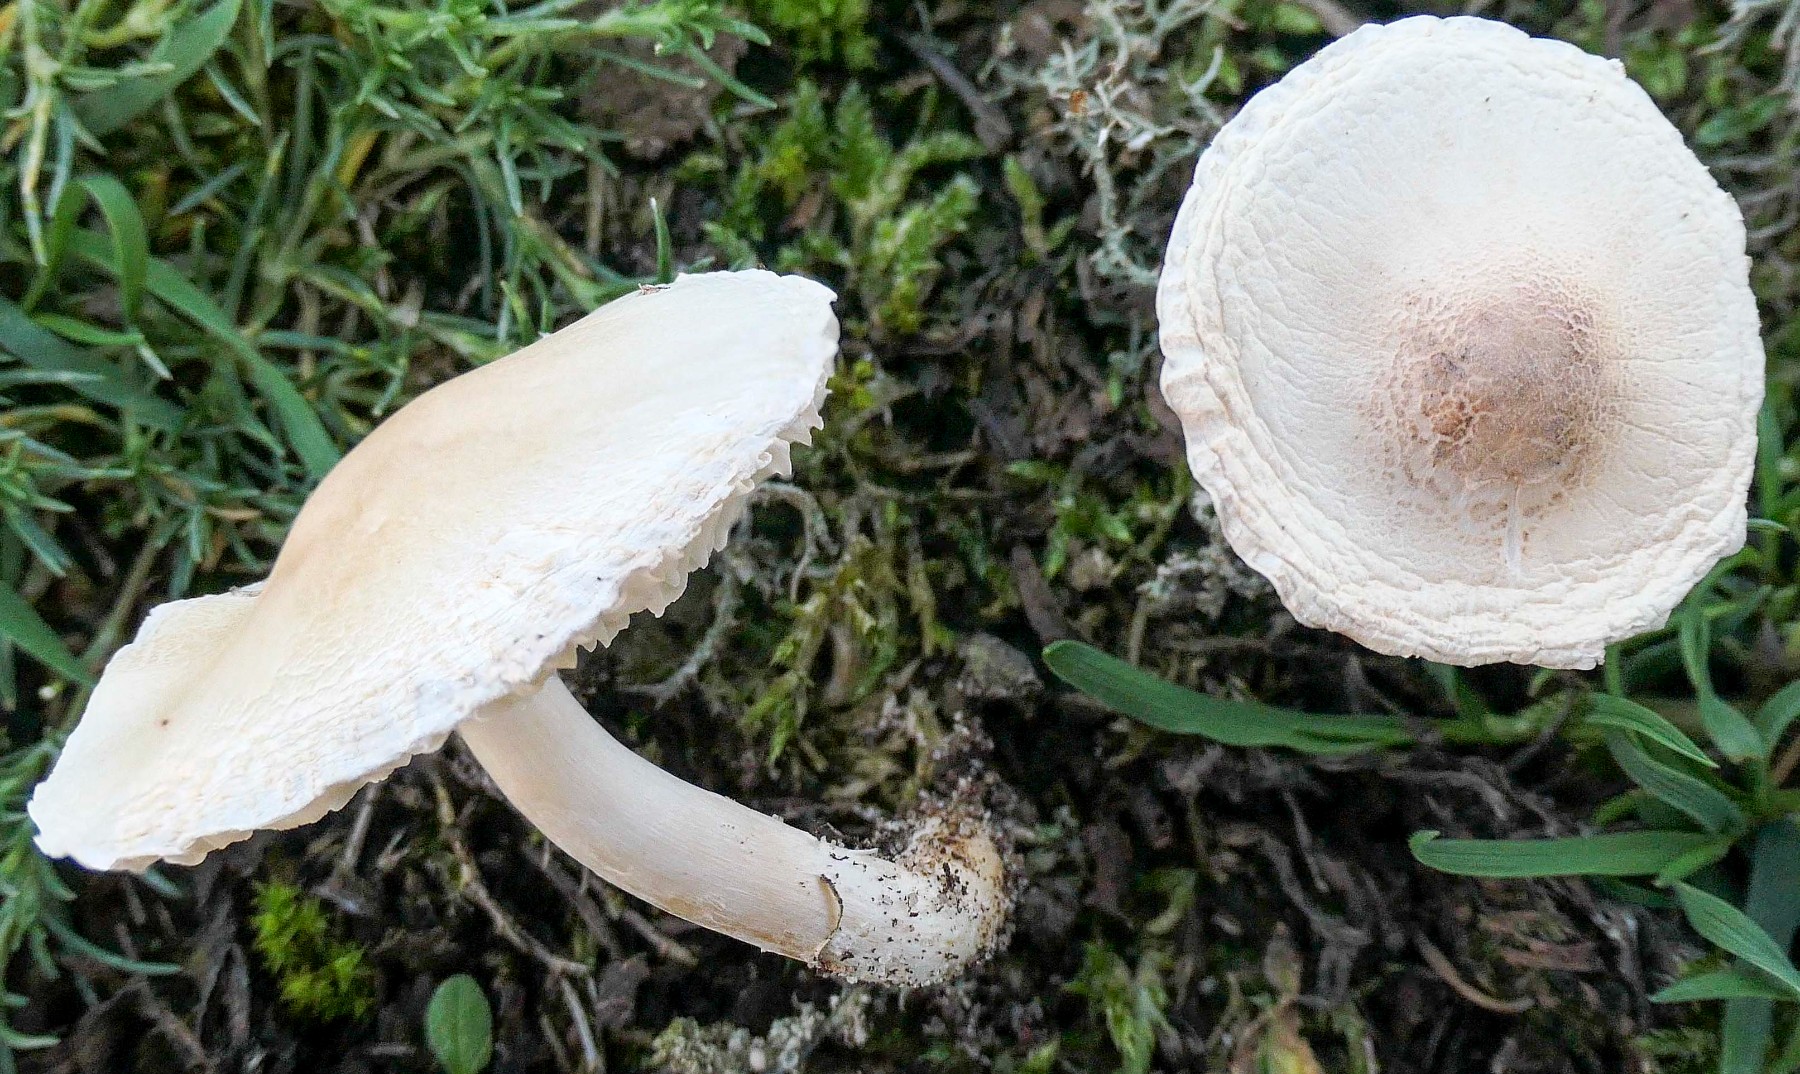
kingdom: Fungi
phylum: Basidiomycota
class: Agaricomycetes
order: Agaricales
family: Agaricaceae
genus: Lepiota
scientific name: Lepiota erminea
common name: hvid parasolhat
